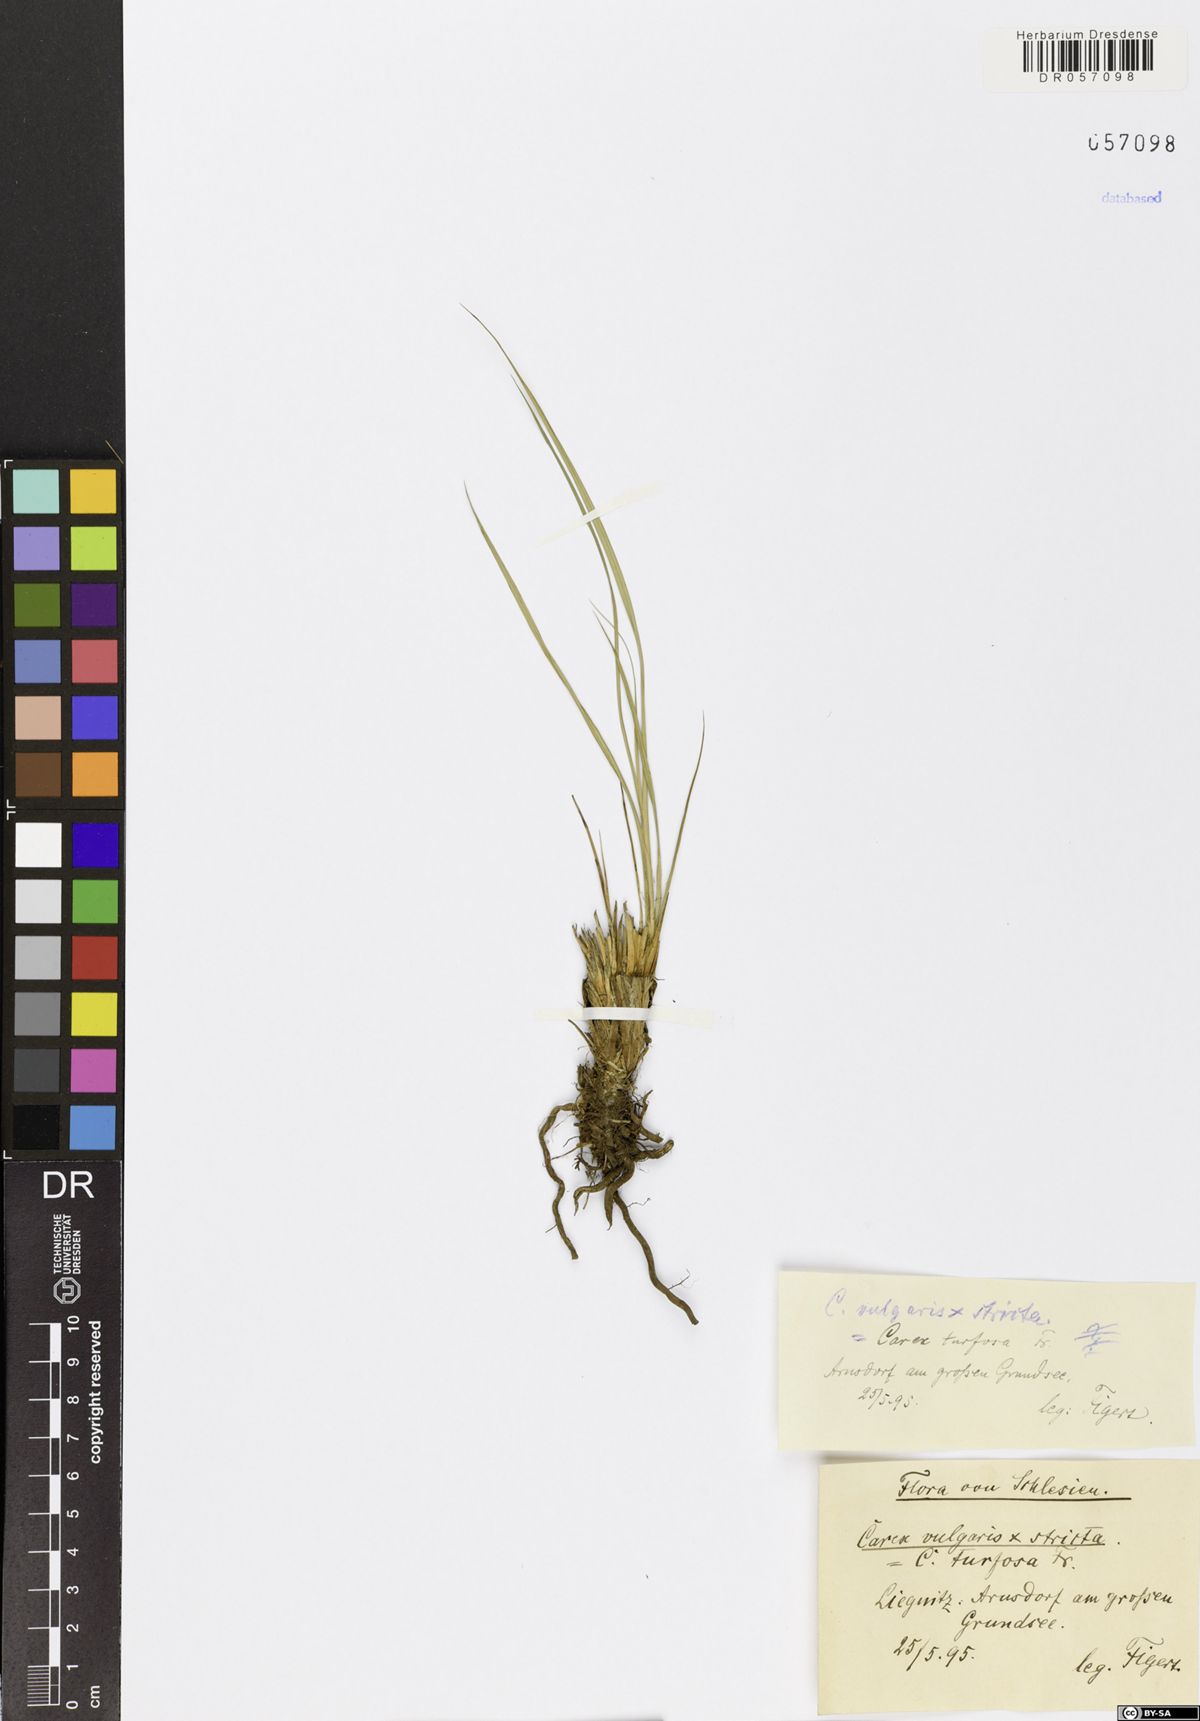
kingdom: Plantae
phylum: Tracheophyta
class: Liliopsida
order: Poales
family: Cyperaceae
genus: Carex
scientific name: Carex turfosa
